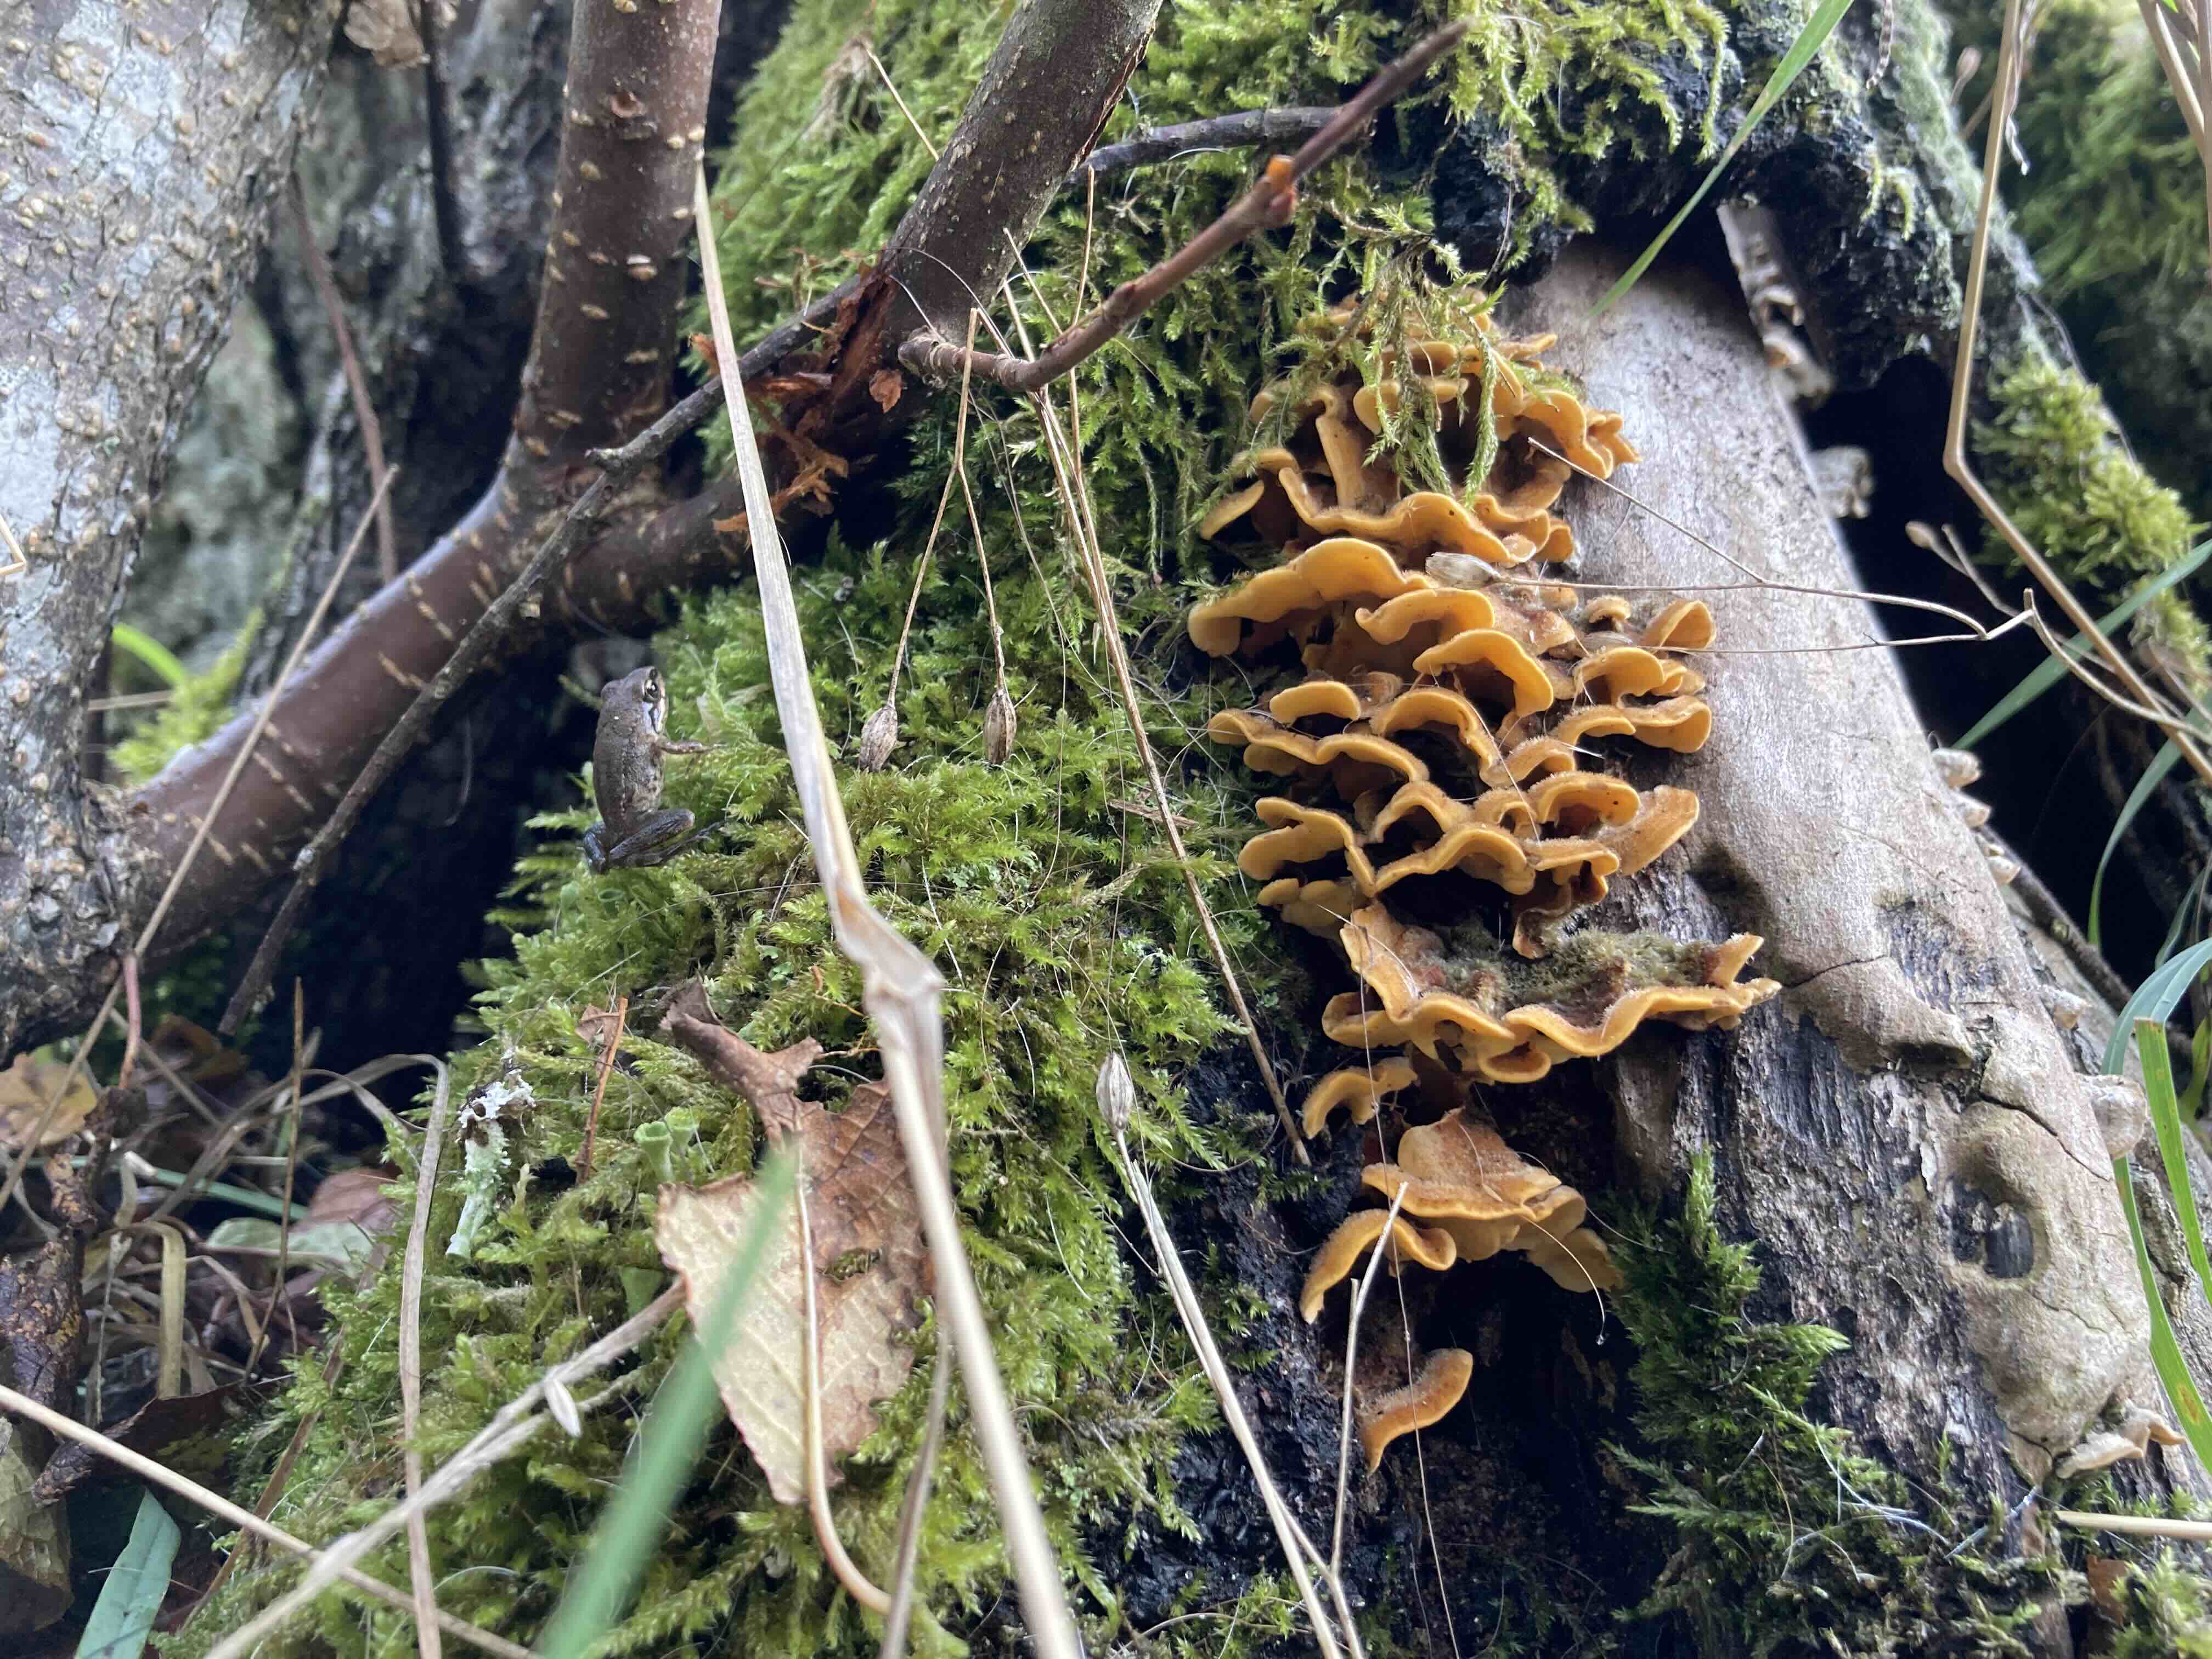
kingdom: Fungi
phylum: Basidiomycota
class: Agaricomycetes
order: Russulales
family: Stereaceae
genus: Stereum
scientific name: Stereum hirsutum
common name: håret lædersvamp
